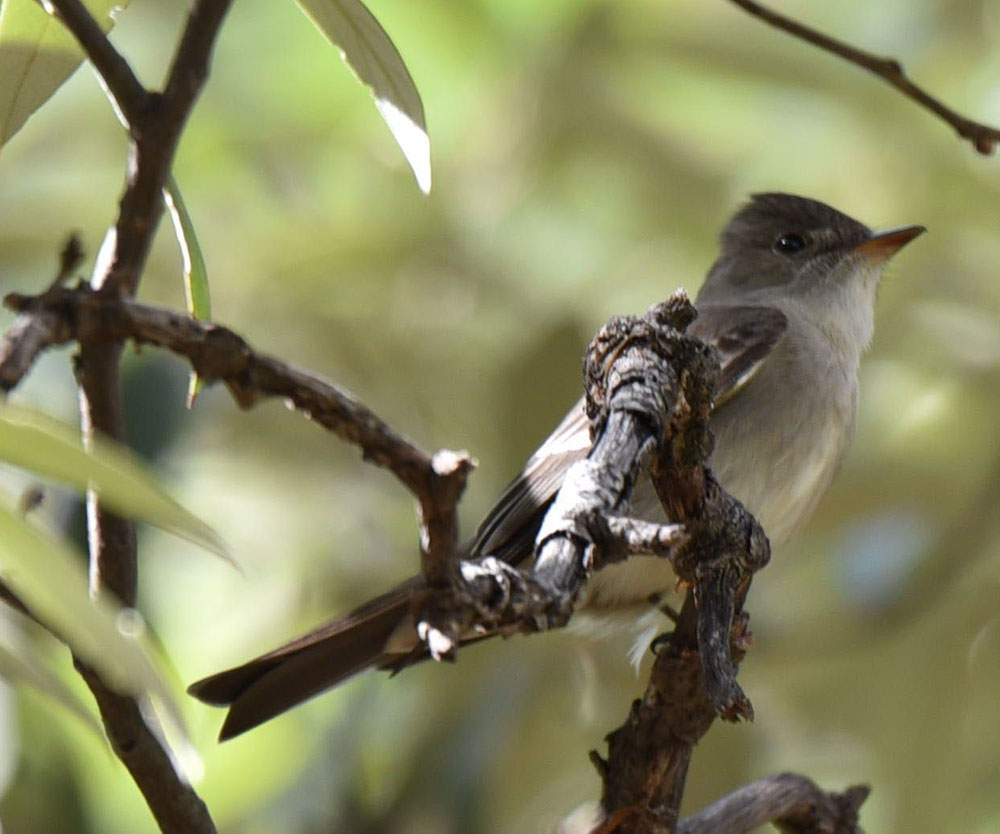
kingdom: Animalia
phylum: Chordata
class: Aves
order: Passeriformes
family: Tyrannidae
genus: Contopus
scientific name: Contopus sordidulus
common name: Western wood-pewee
